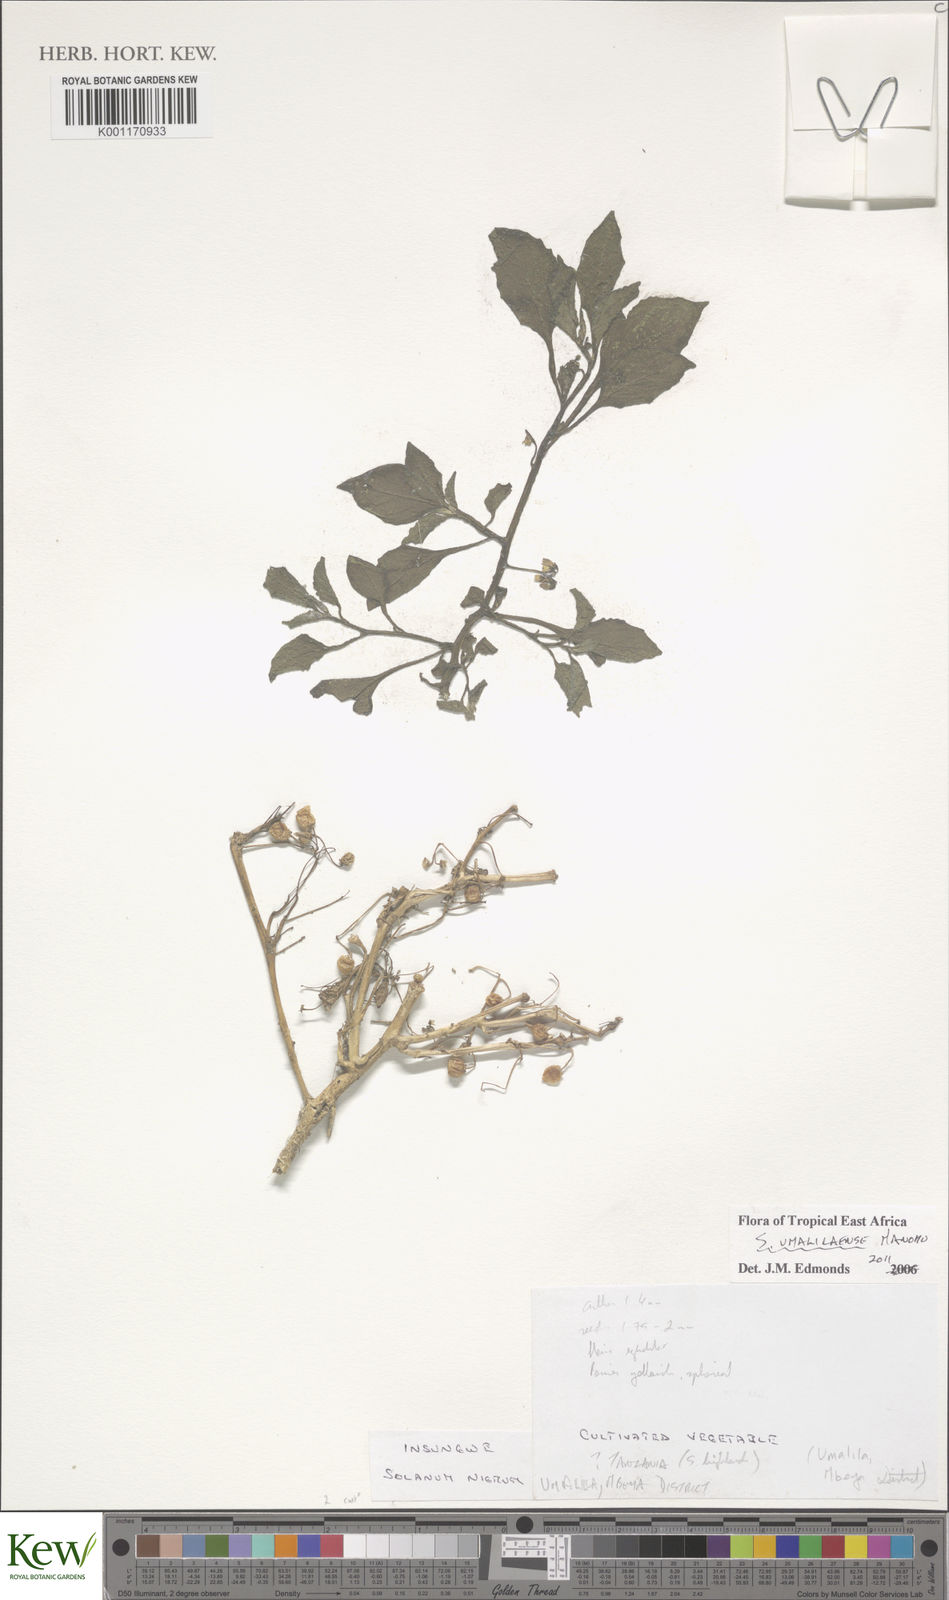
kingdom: Plantae
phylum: Tracheophyta
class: Magnoliopsida
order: Solanales
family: Solanaceae
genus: Solanum
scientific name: Solanum umbellatum
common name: Nightshade
